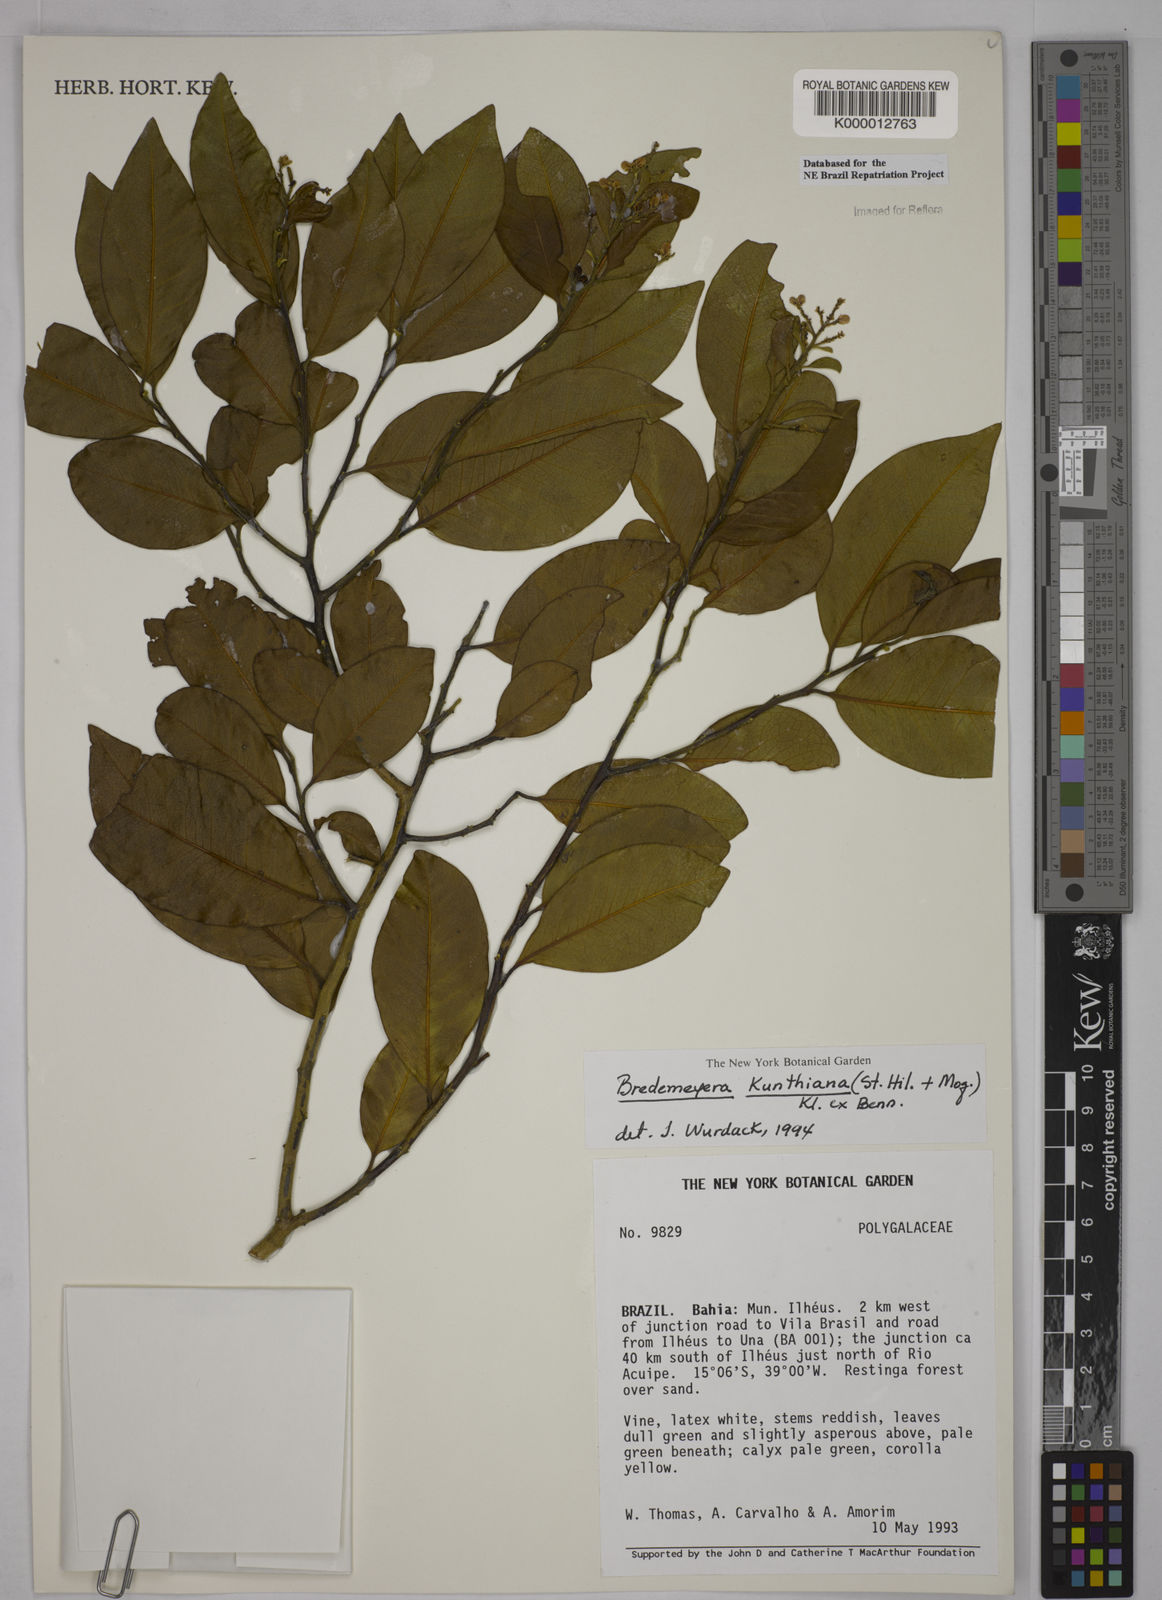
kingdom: Plantae
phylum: Tracheophyta
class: Magnoliopsida
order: Fabales
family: Polygalaceae
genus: Bredemeyera
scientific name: Bredemeyera hebeclada
